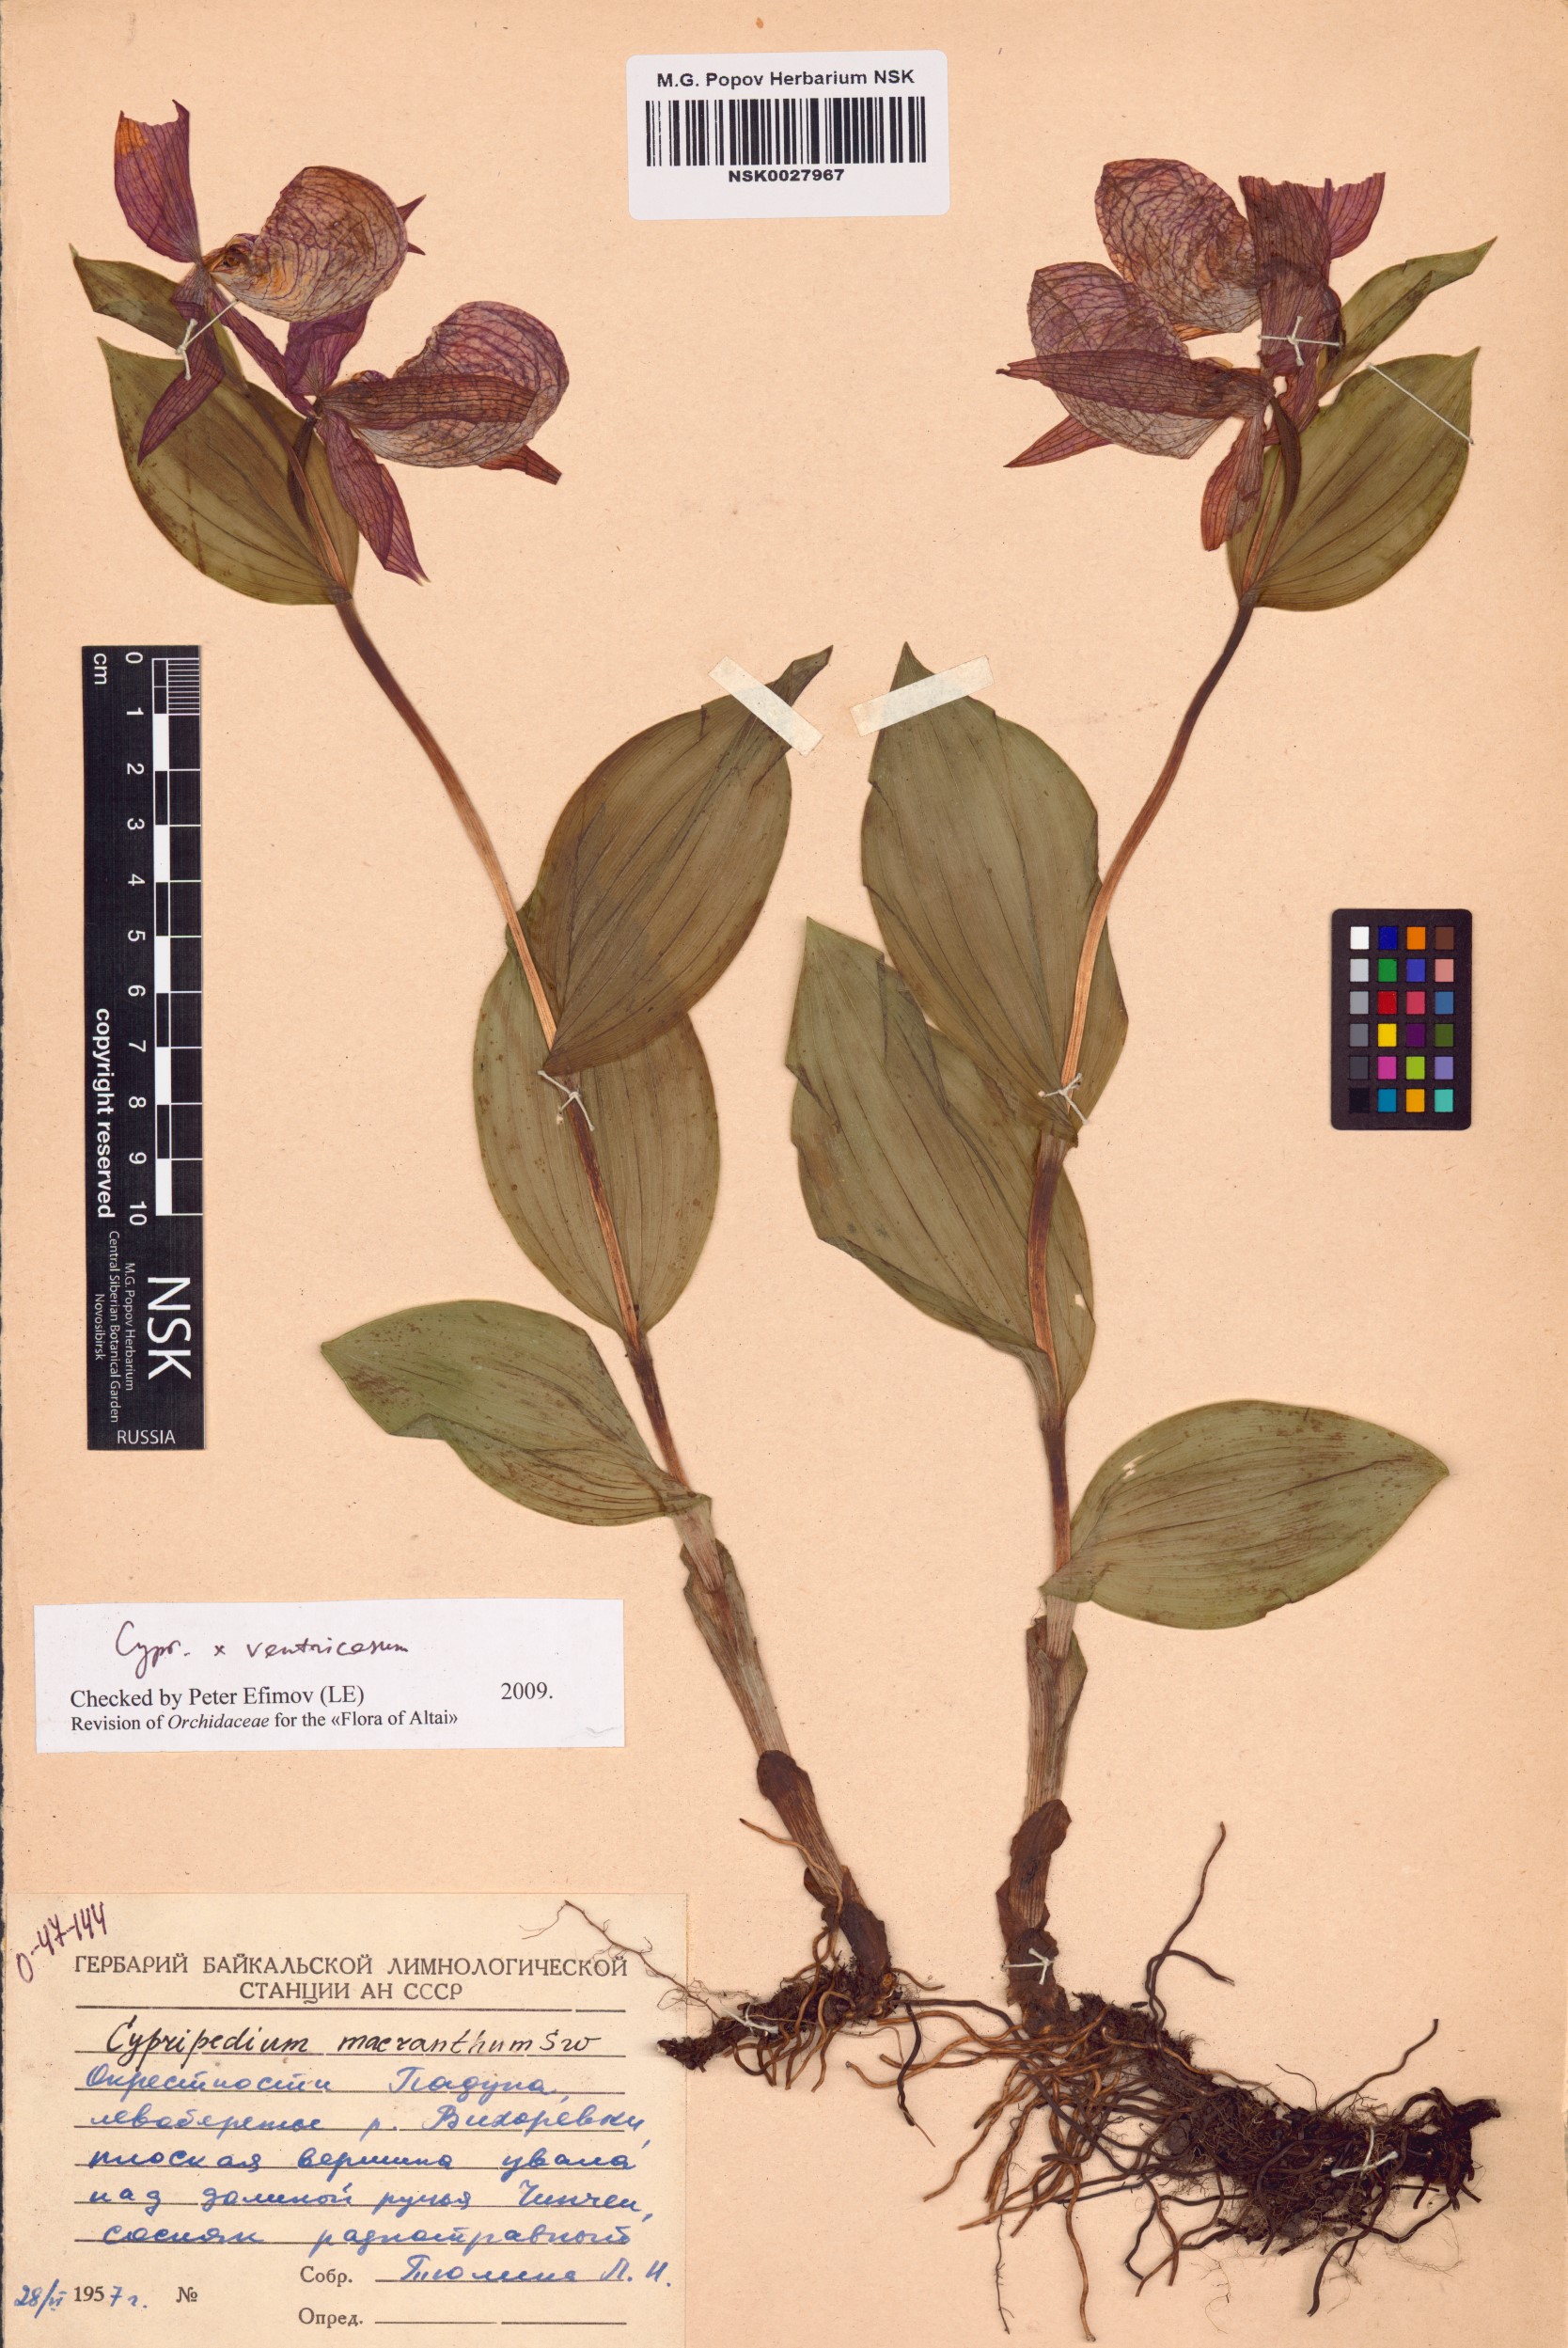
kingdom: Plantae
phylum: Tracheophyta
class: Liliopsida
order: Asparagales
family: Orchidaceae
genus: Cypripedium
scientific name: Cypripedium ventricosum
